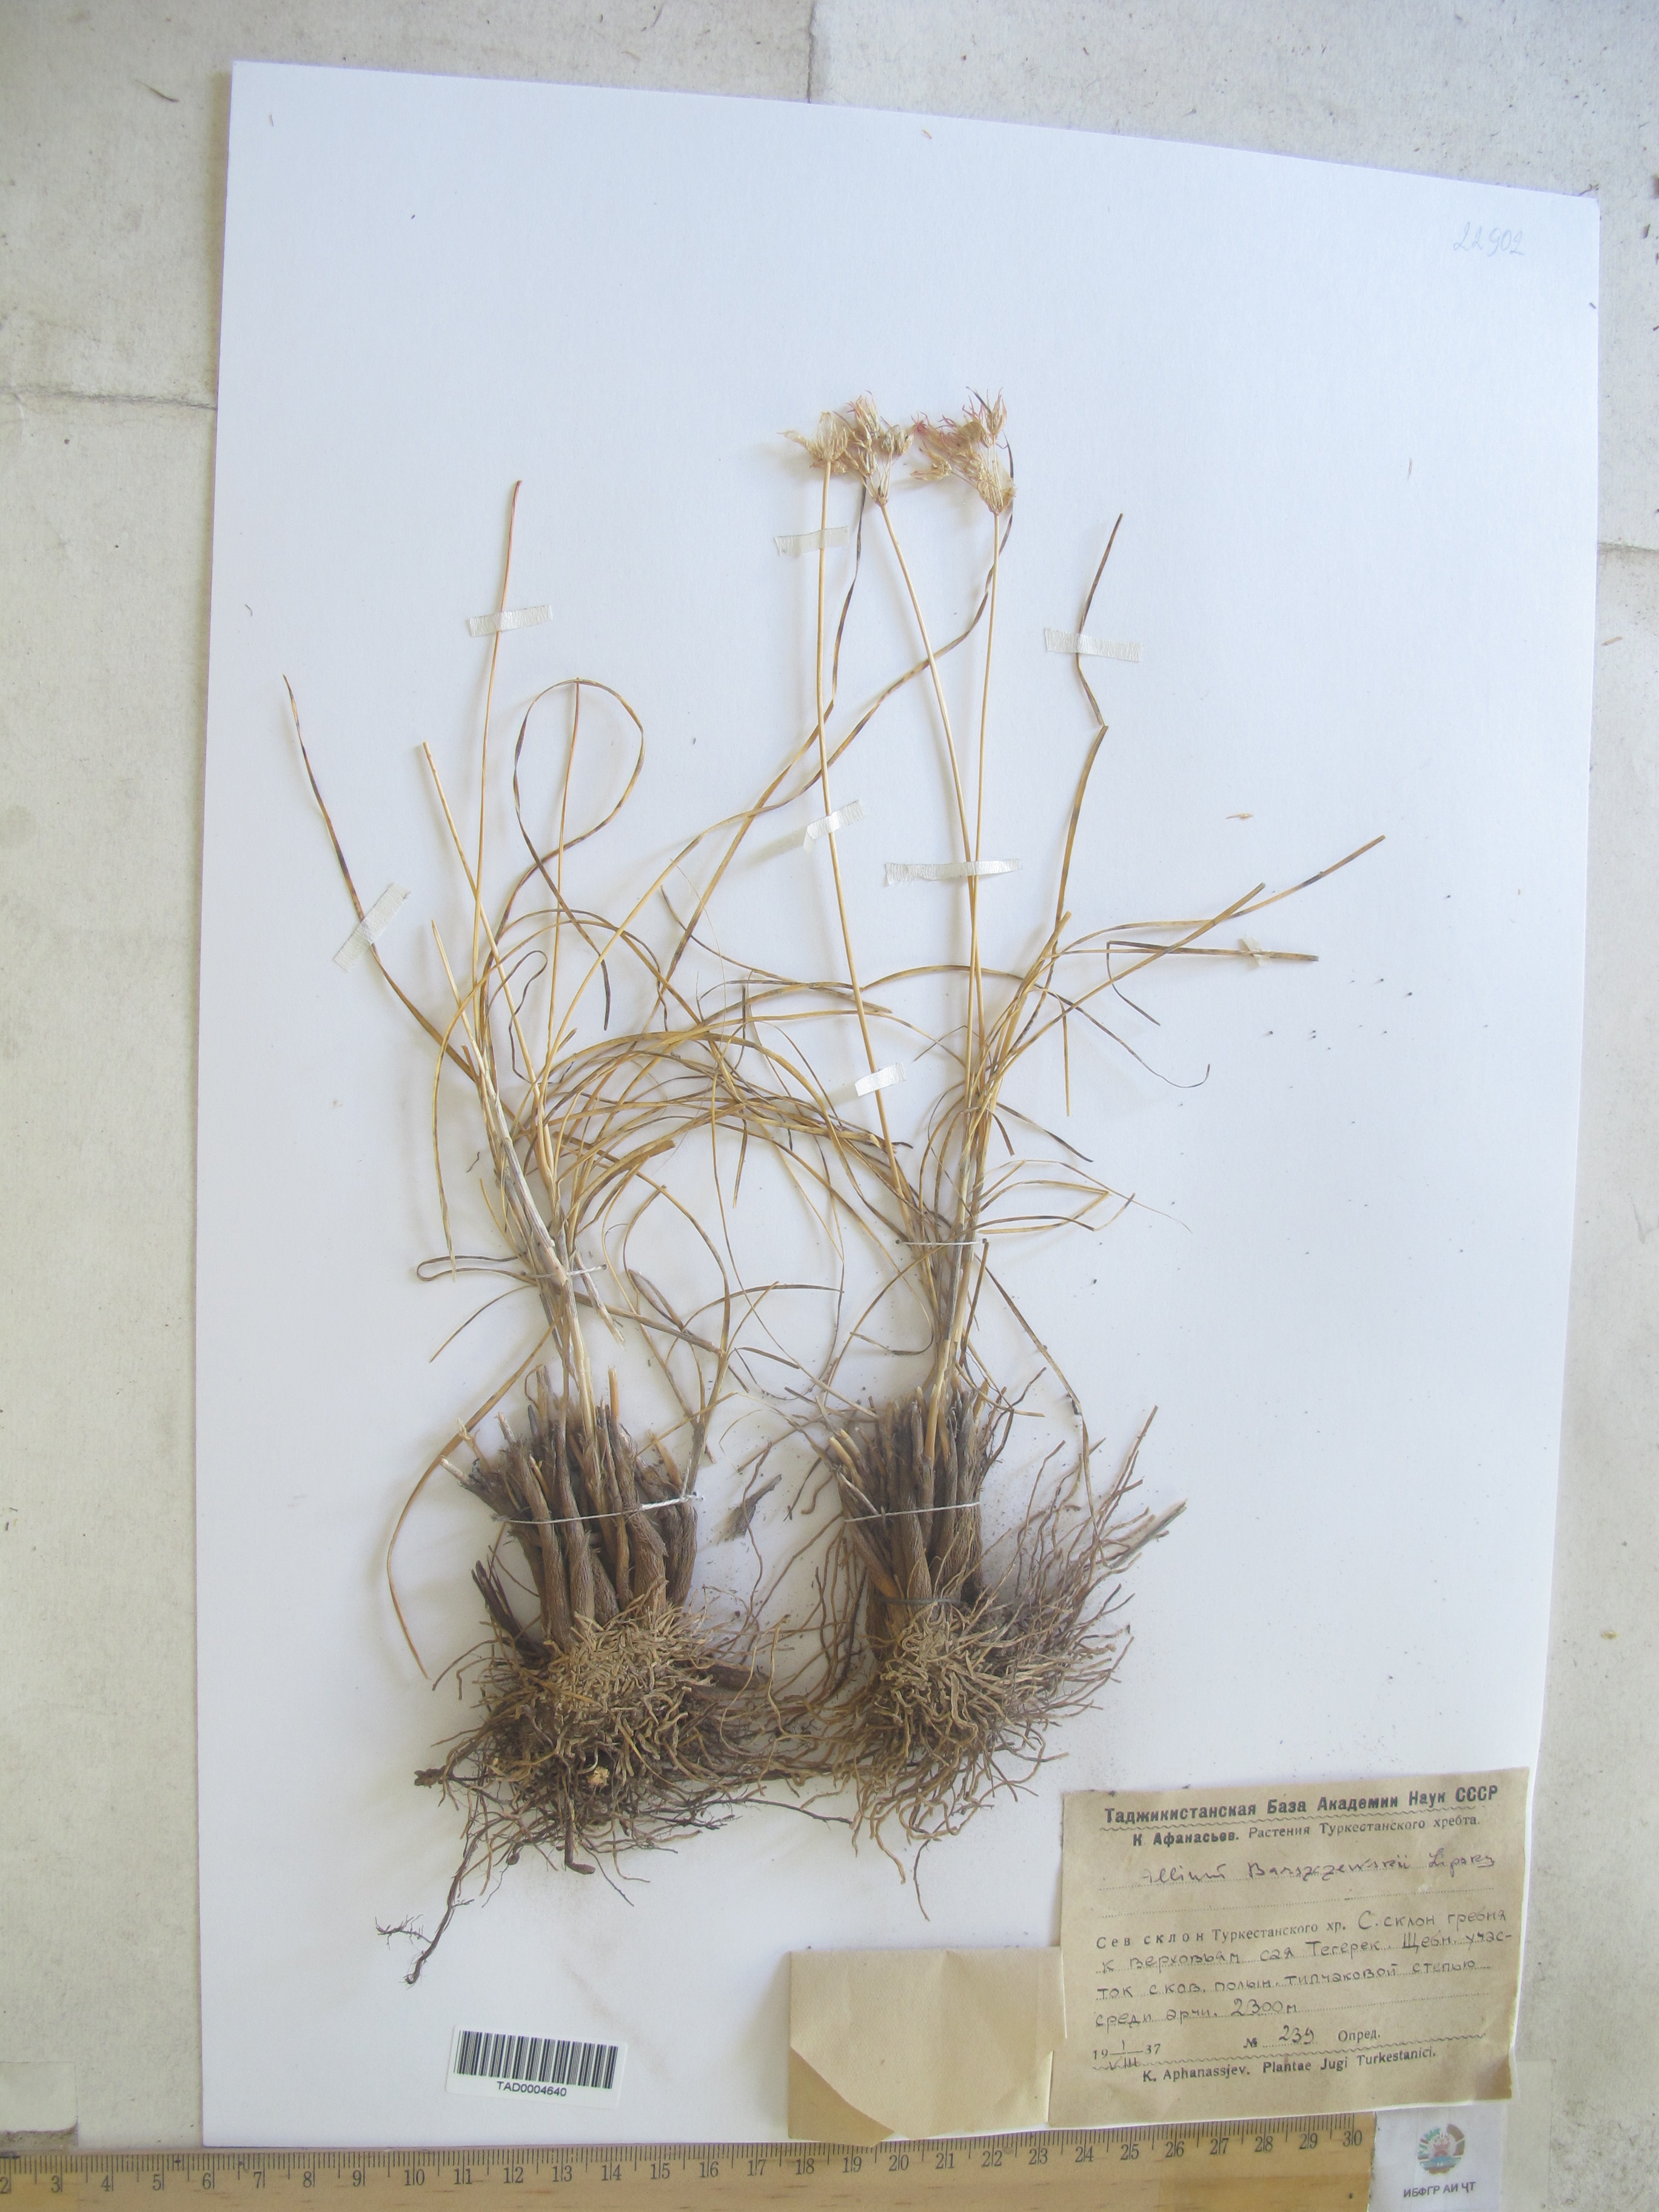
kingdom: Plantae
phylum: Tracheophyta
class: Liliopsida
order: Asparagales
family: Amaryllidaceae
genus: Allium
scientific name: Allium barsczewskii
